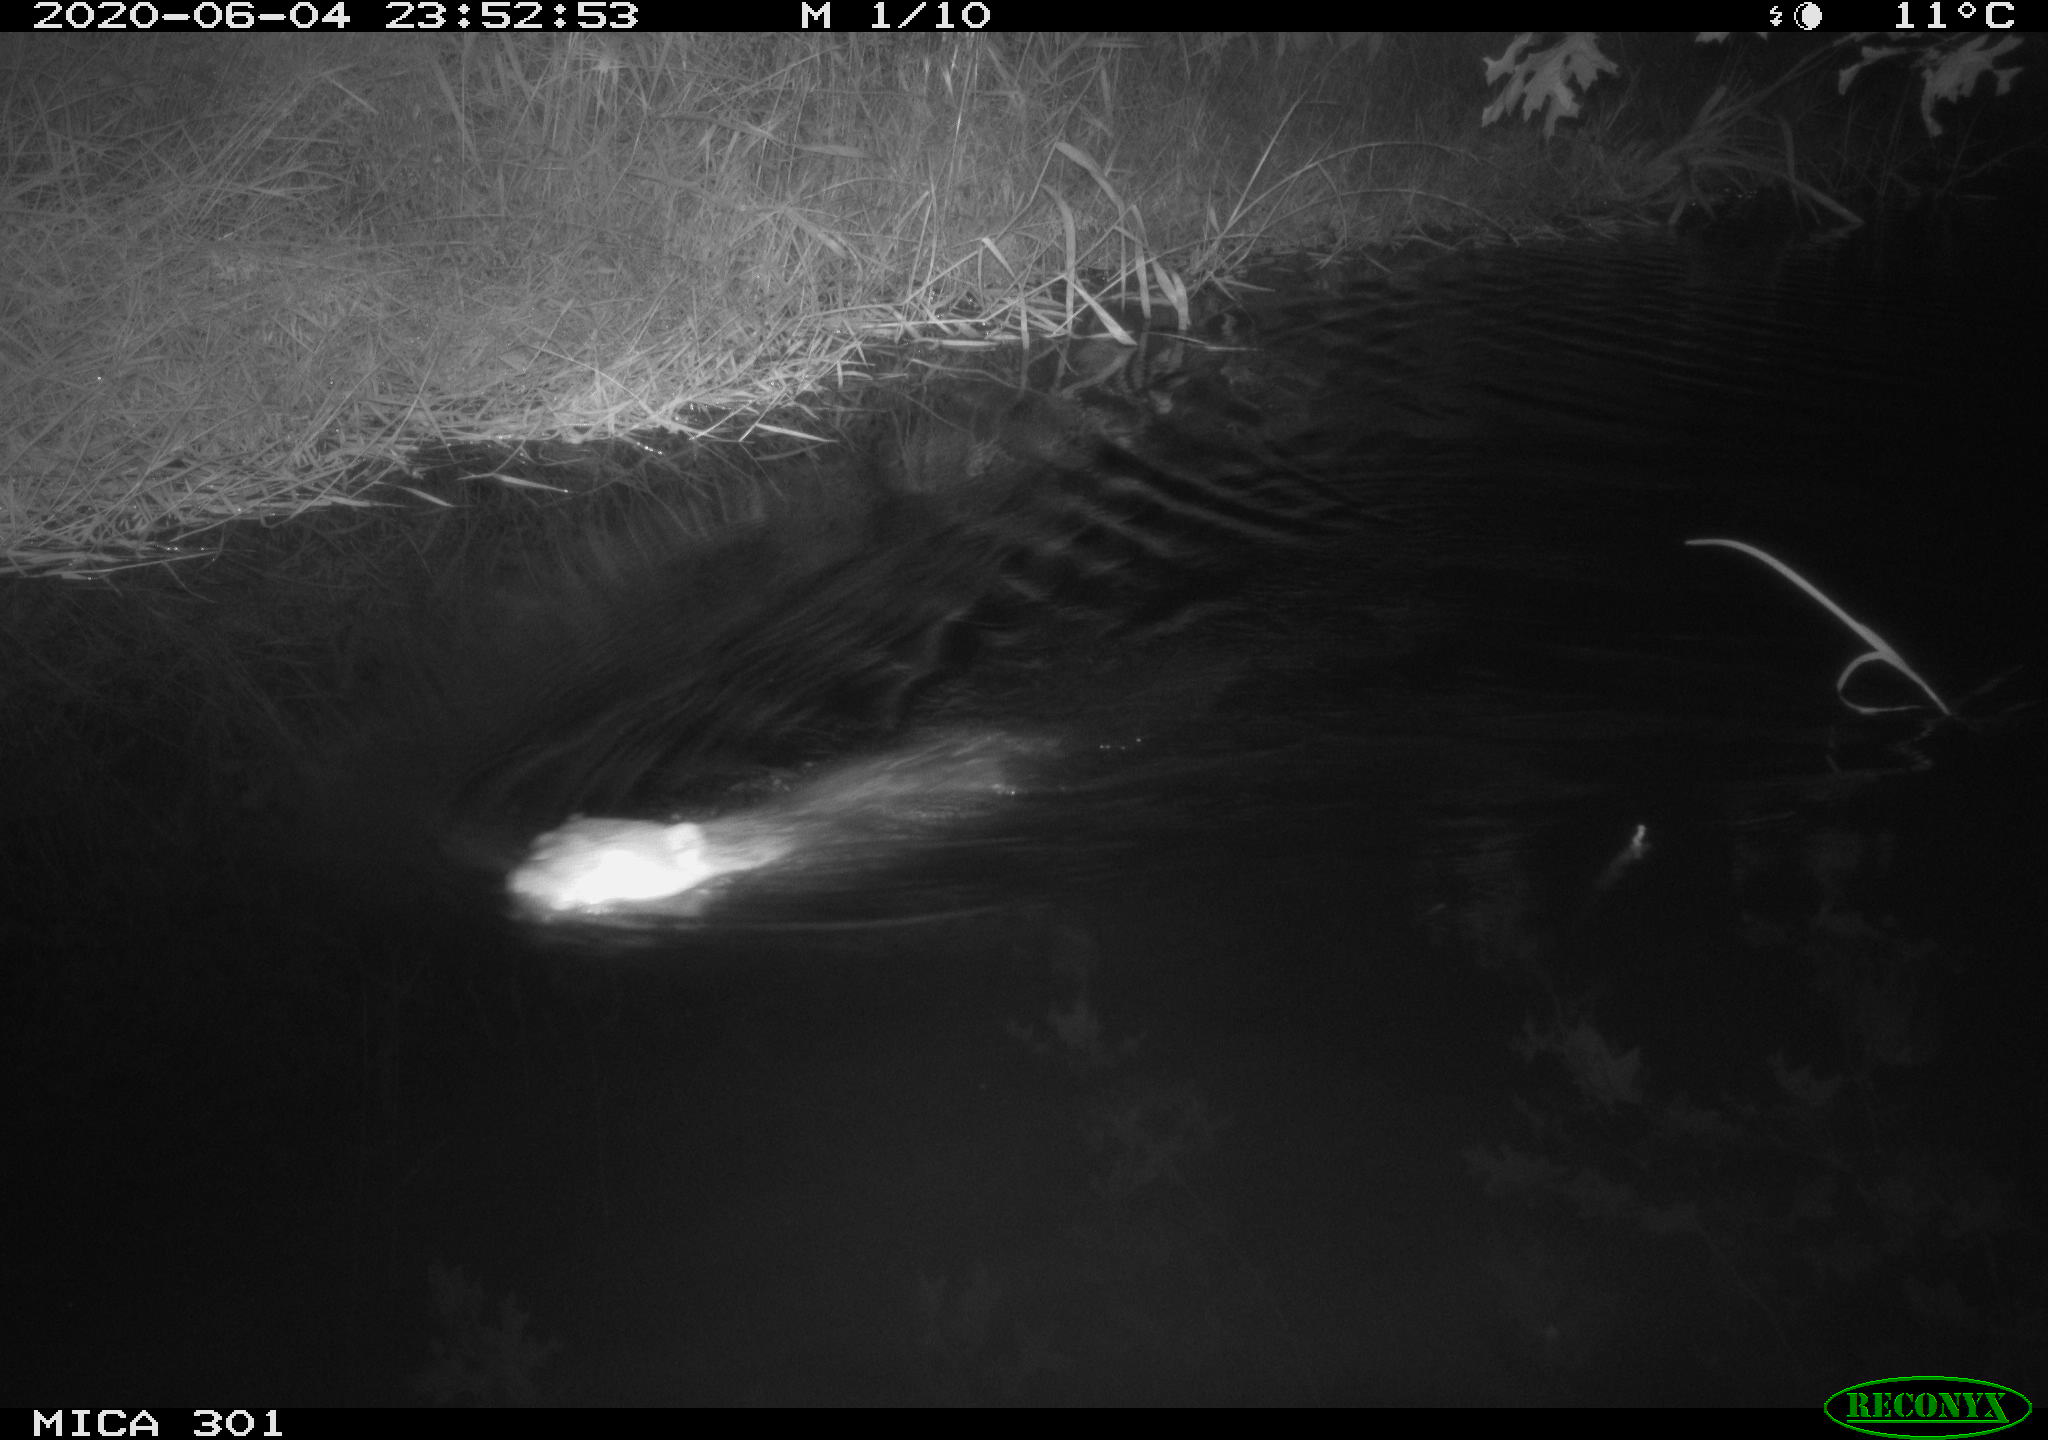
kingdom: Animalia
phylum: Chordata
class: Mammalia
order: Rodentia
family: Castoridae
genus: Castor
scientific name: Castor fiber
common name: Eurasian beaver
